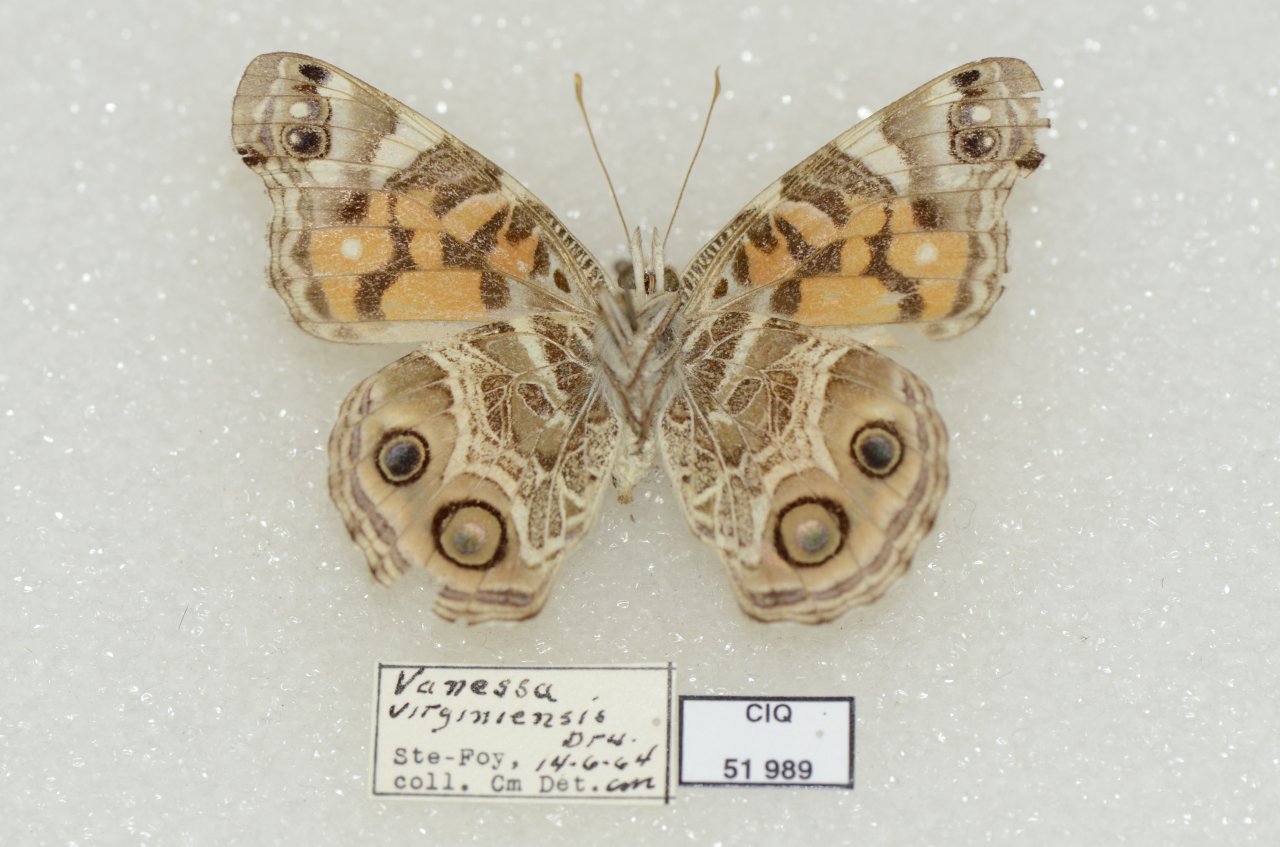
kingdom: Animalia
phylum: Arthropoda
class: Insecta
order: Lepidoptera
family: Nymphalidae
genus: Vanessa
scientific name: Vanessa virginiensis
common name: American Lady
